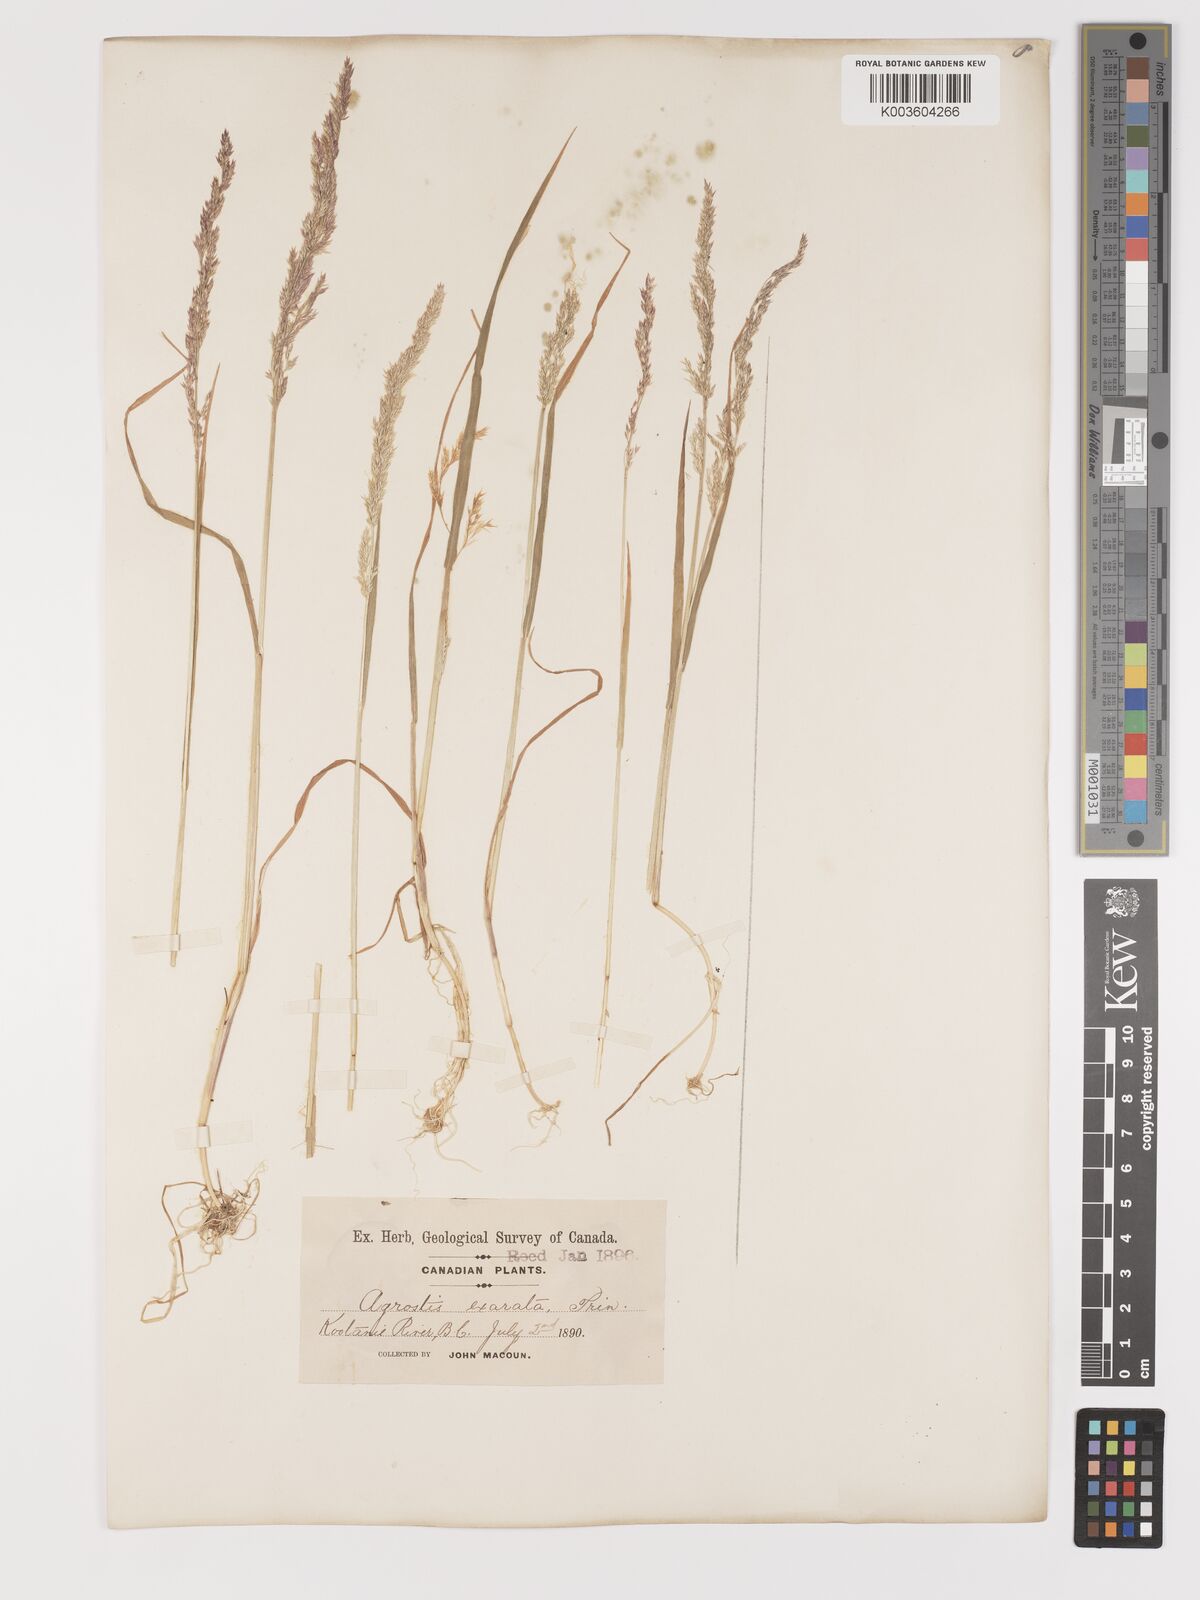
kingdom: Plantae
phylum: Tracheophyta
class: Liliopsida
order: Poales
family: Poaceae
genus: Agrostis
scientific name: Agrostis exarata
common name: Spike bent
